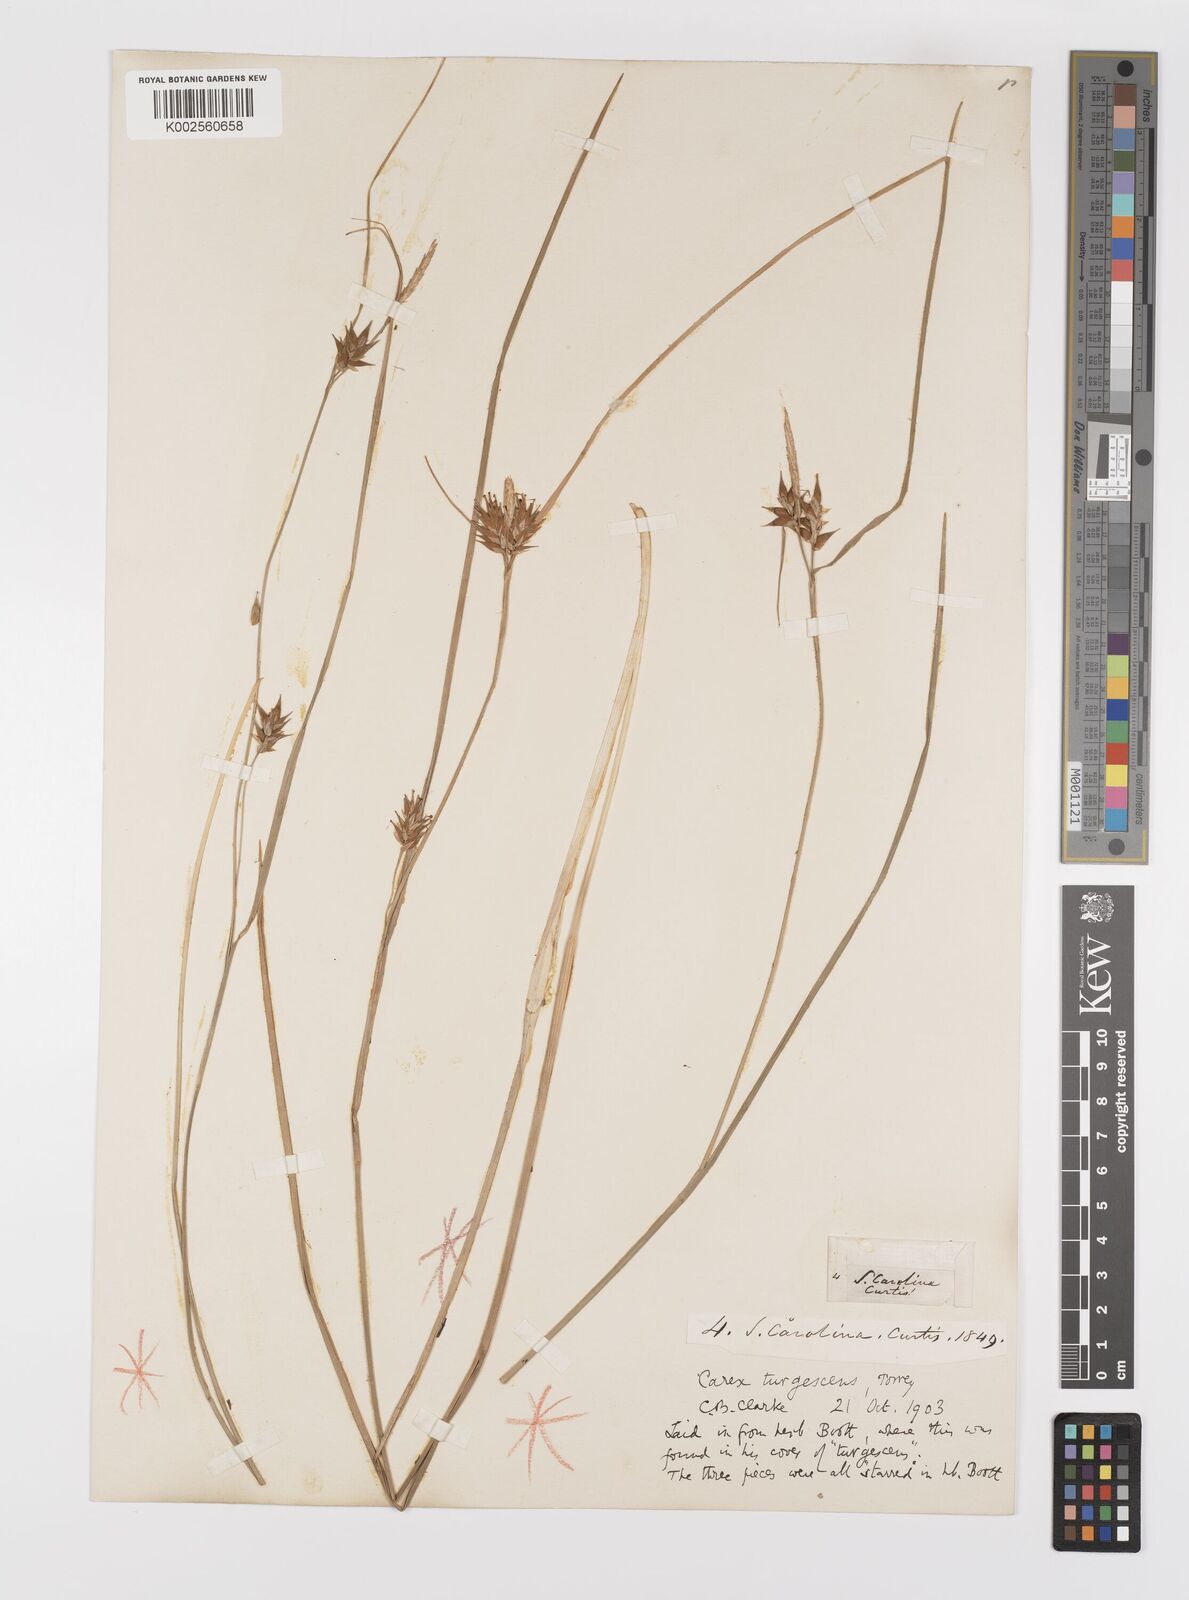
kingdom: Plantae
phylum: Tracheophyta
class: Liliopsida
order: Poales
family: Cyperaceae
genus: Carex
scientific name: Carex turgescens
